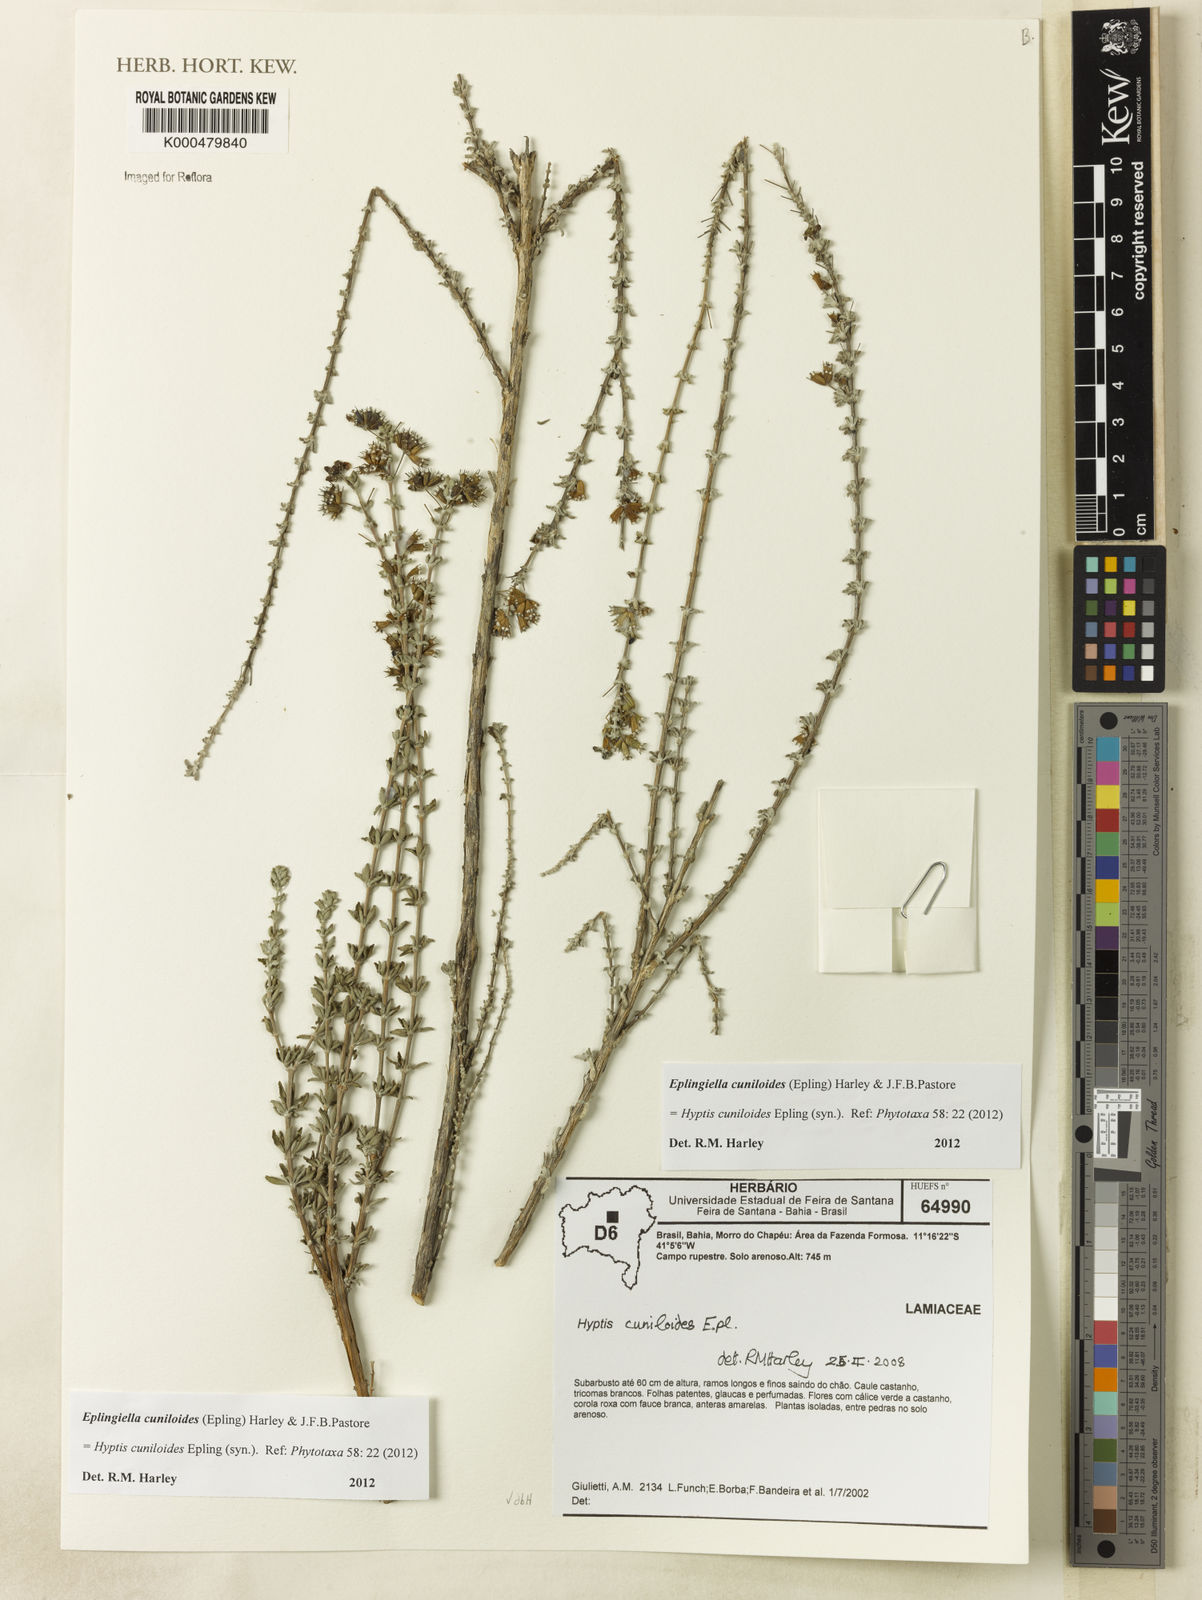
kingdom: Plantae
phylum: Tracheophyta
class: Magnoliopsida
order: Lamiales
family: Lamiaceae
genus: Eplingiella
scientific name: Eplingiella cuniloides
